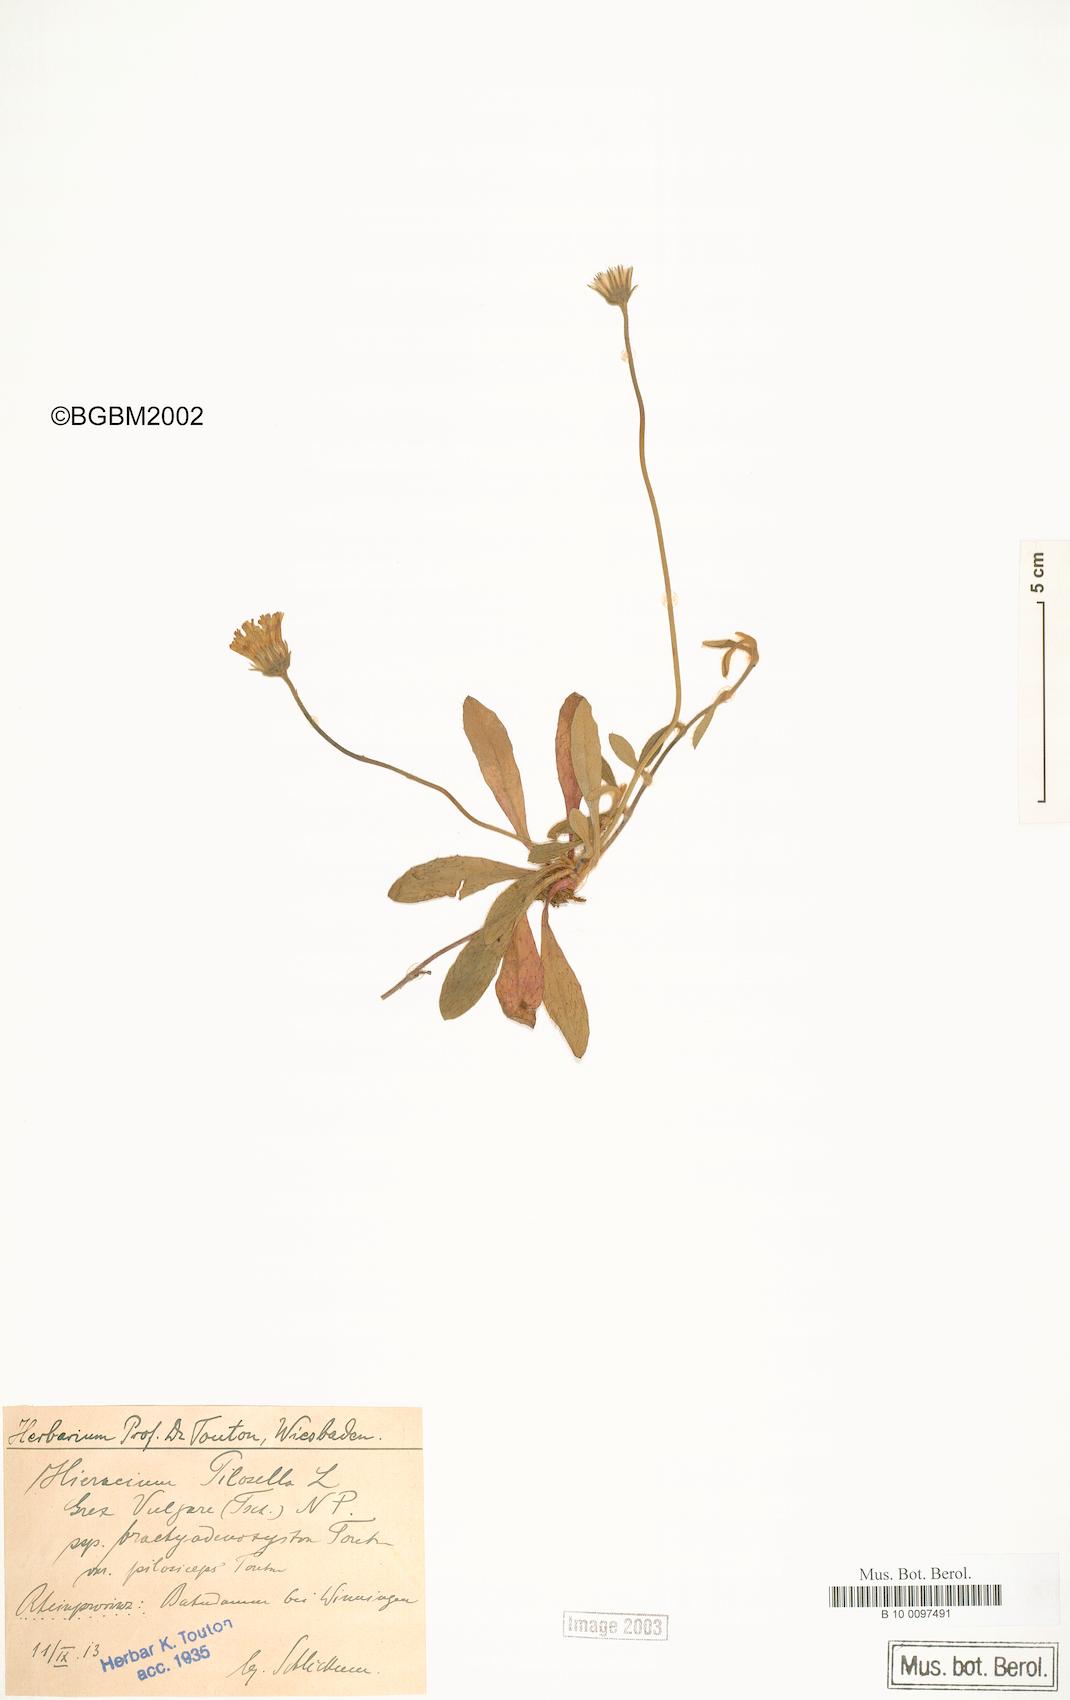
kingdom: Plantae
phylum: Tracheophyta
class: Magnoliopsida
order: Asterales
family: Asteraceae
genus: Pilosella
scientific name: Pilosella officinarum
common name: Mouse-ear hawkweed
